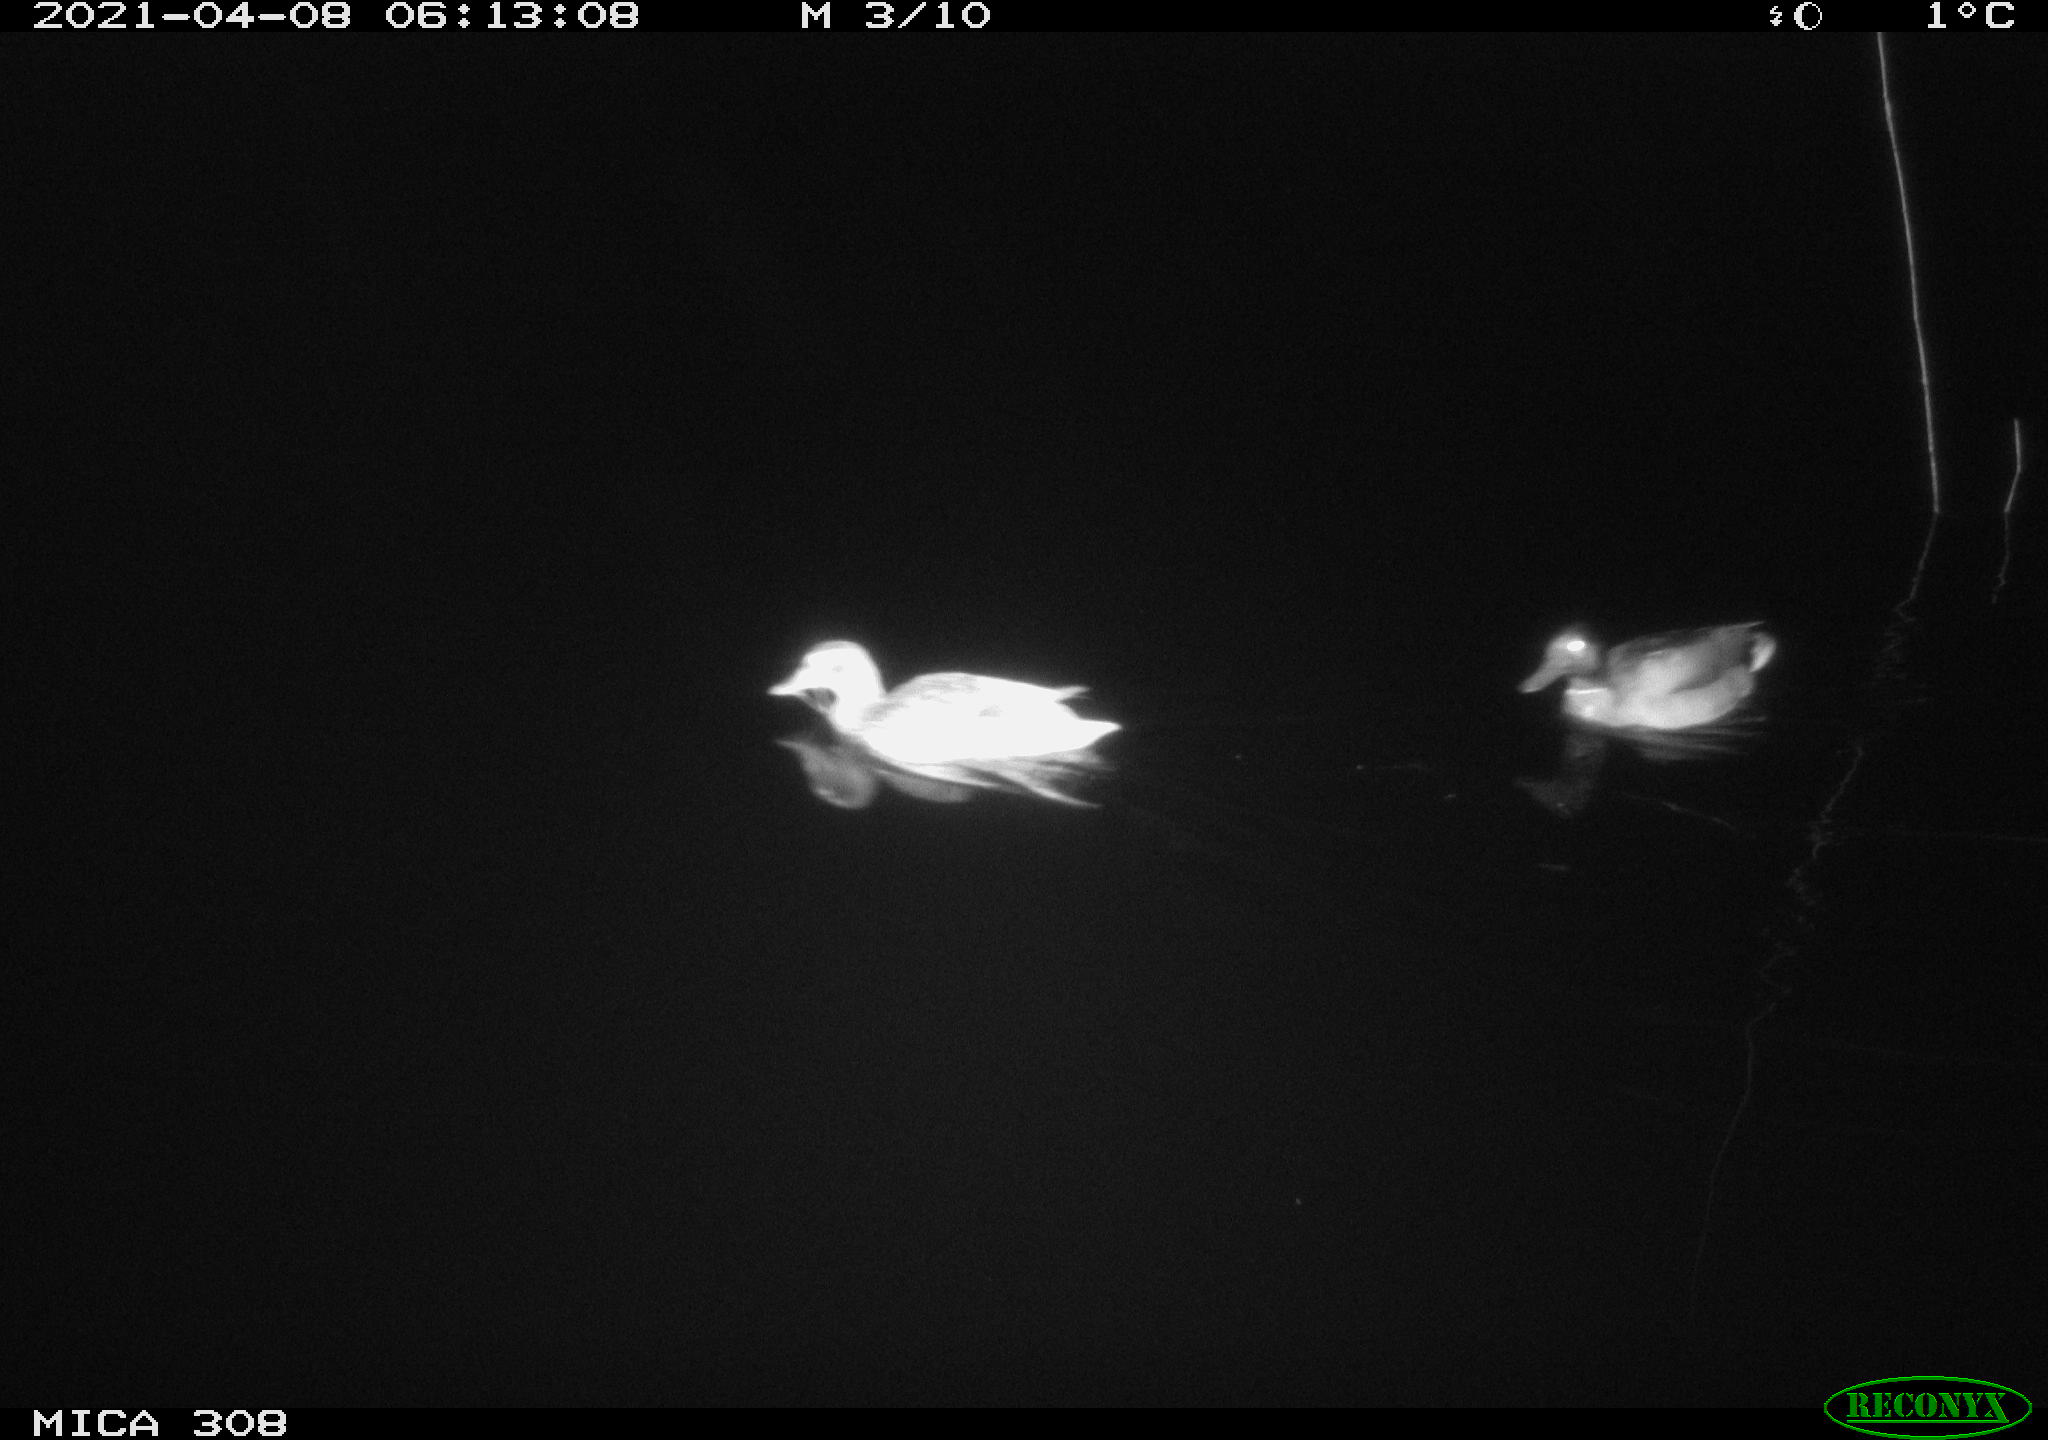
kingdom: Animalia
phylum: Chordata
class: Aves
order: Anseriformes
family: Anatidae
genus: Anas
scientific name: Anas platyrhynchos
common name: Mallard
